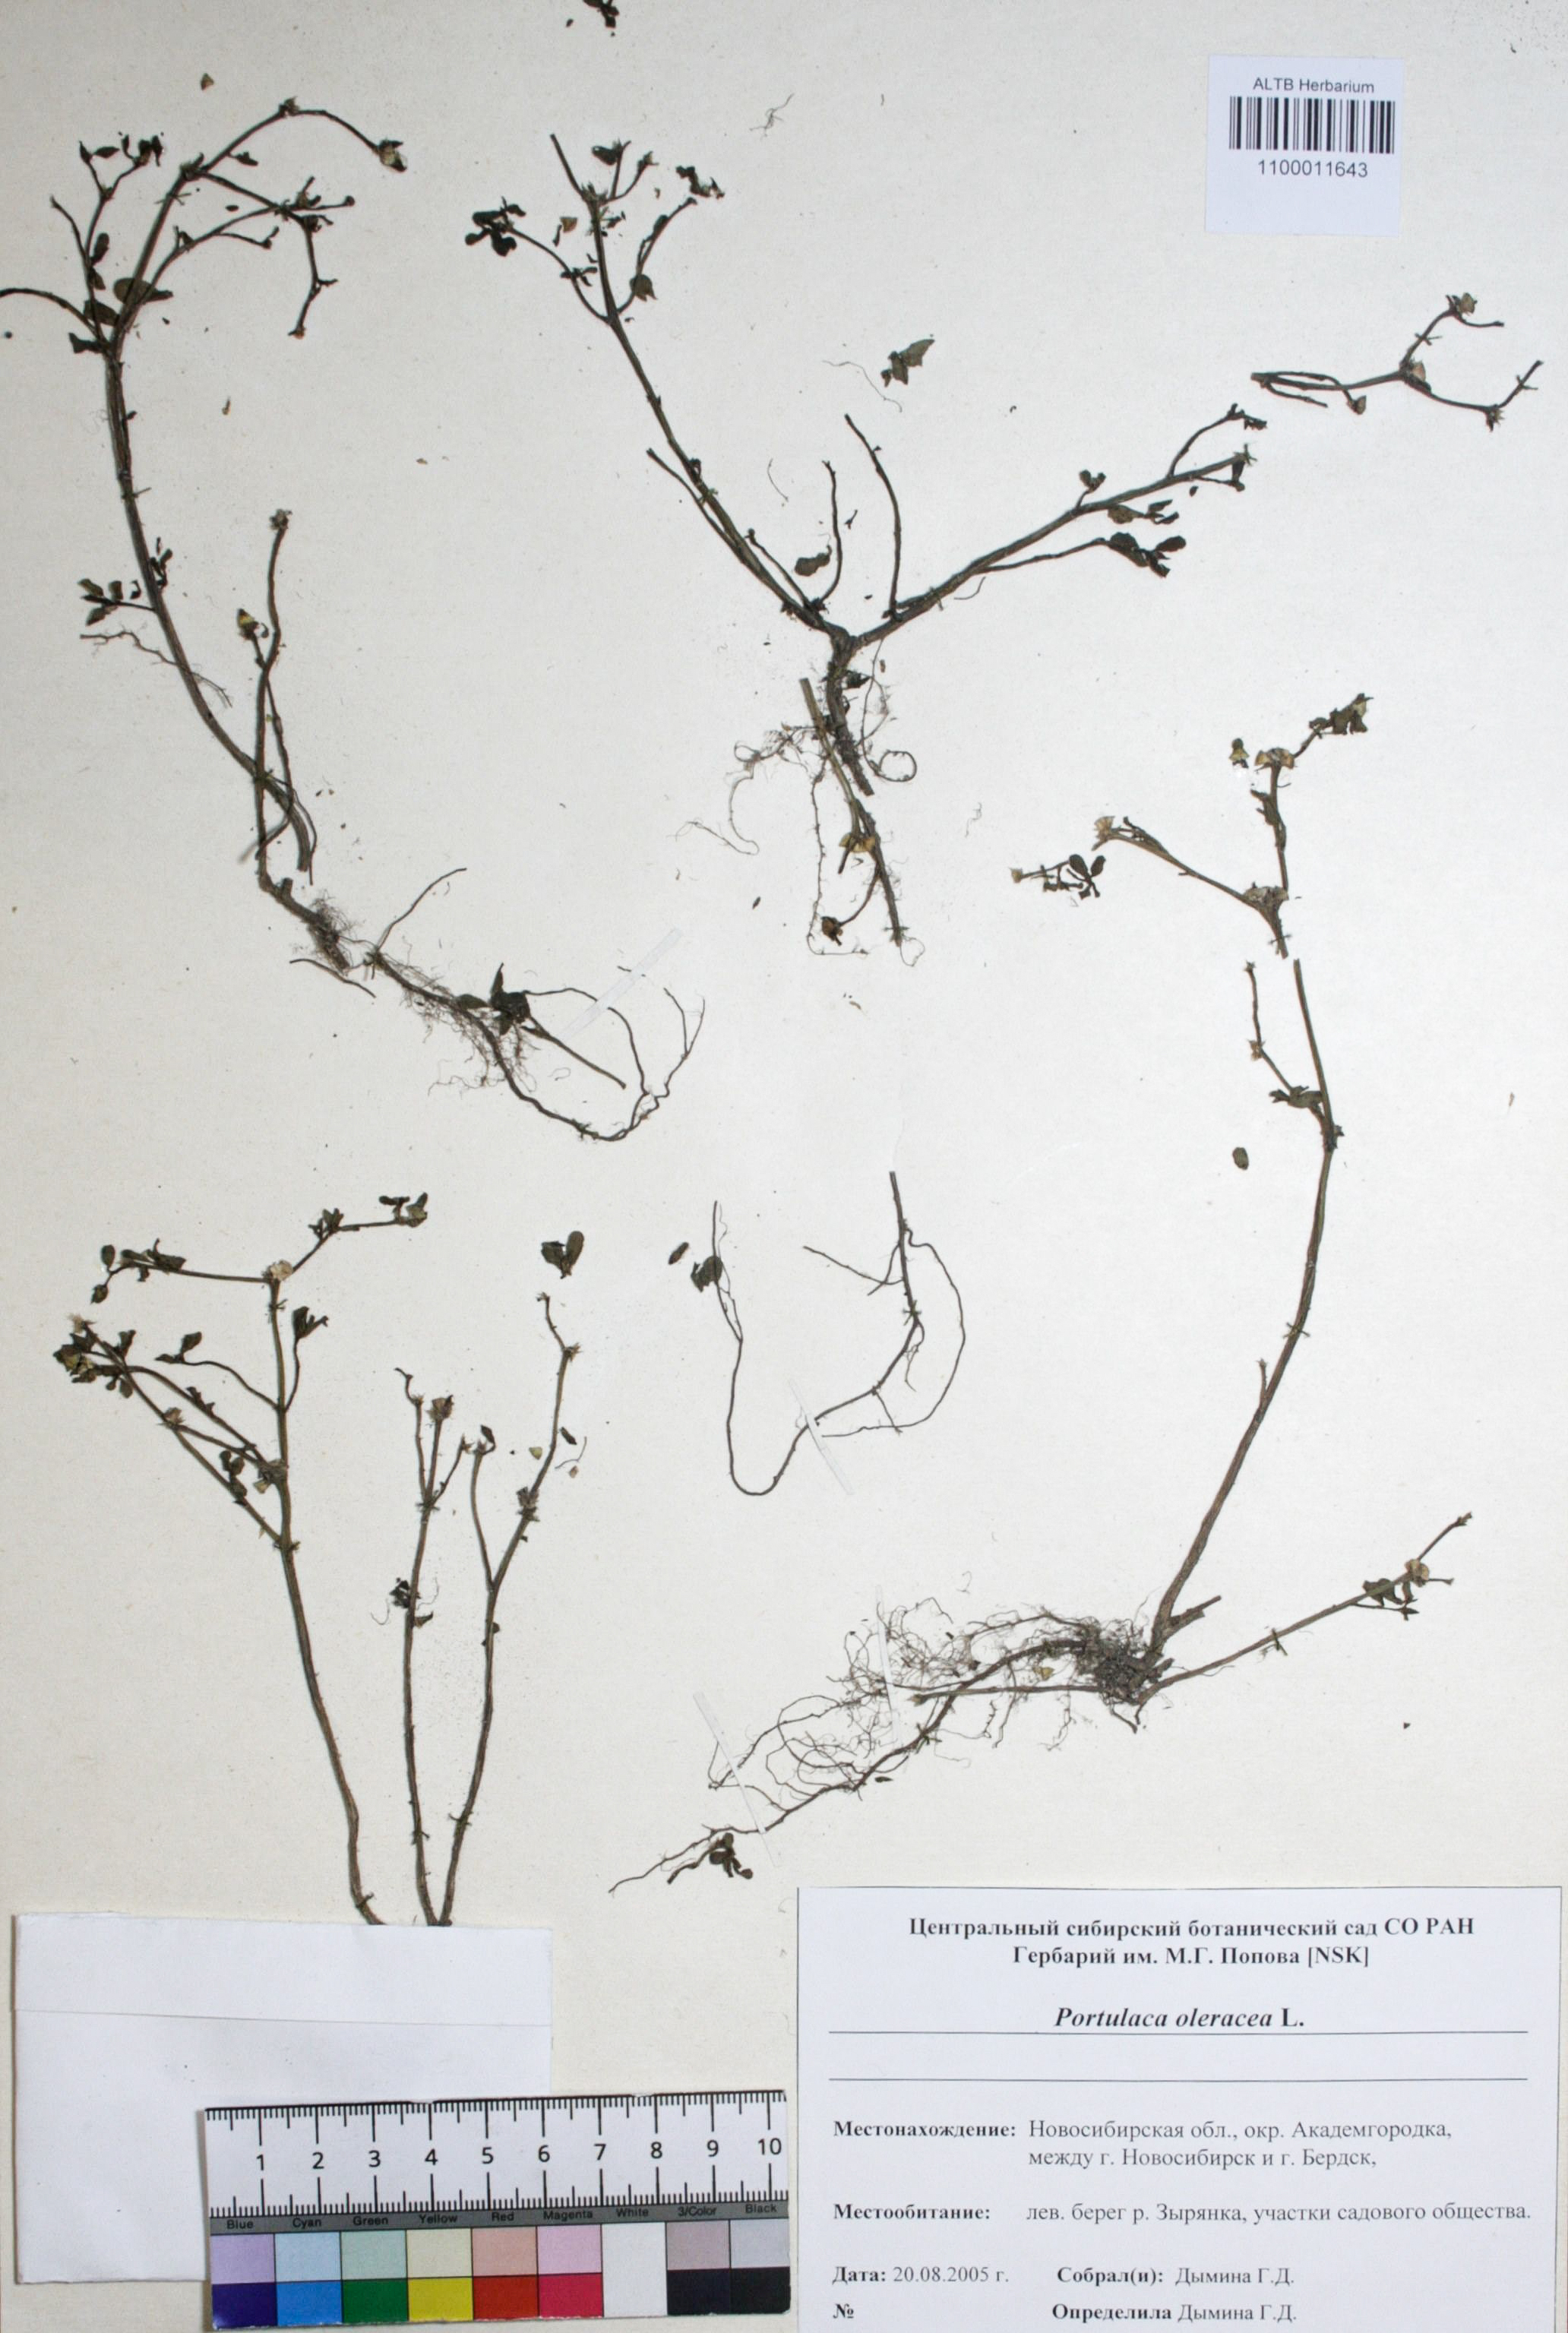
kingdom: Plantae
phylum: Tracheophyta
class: Magnoliopsida
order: Caryophyllales
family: Portulacaceae
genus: Portulaca
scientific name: Portulaca oleracea
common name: Common purslane
